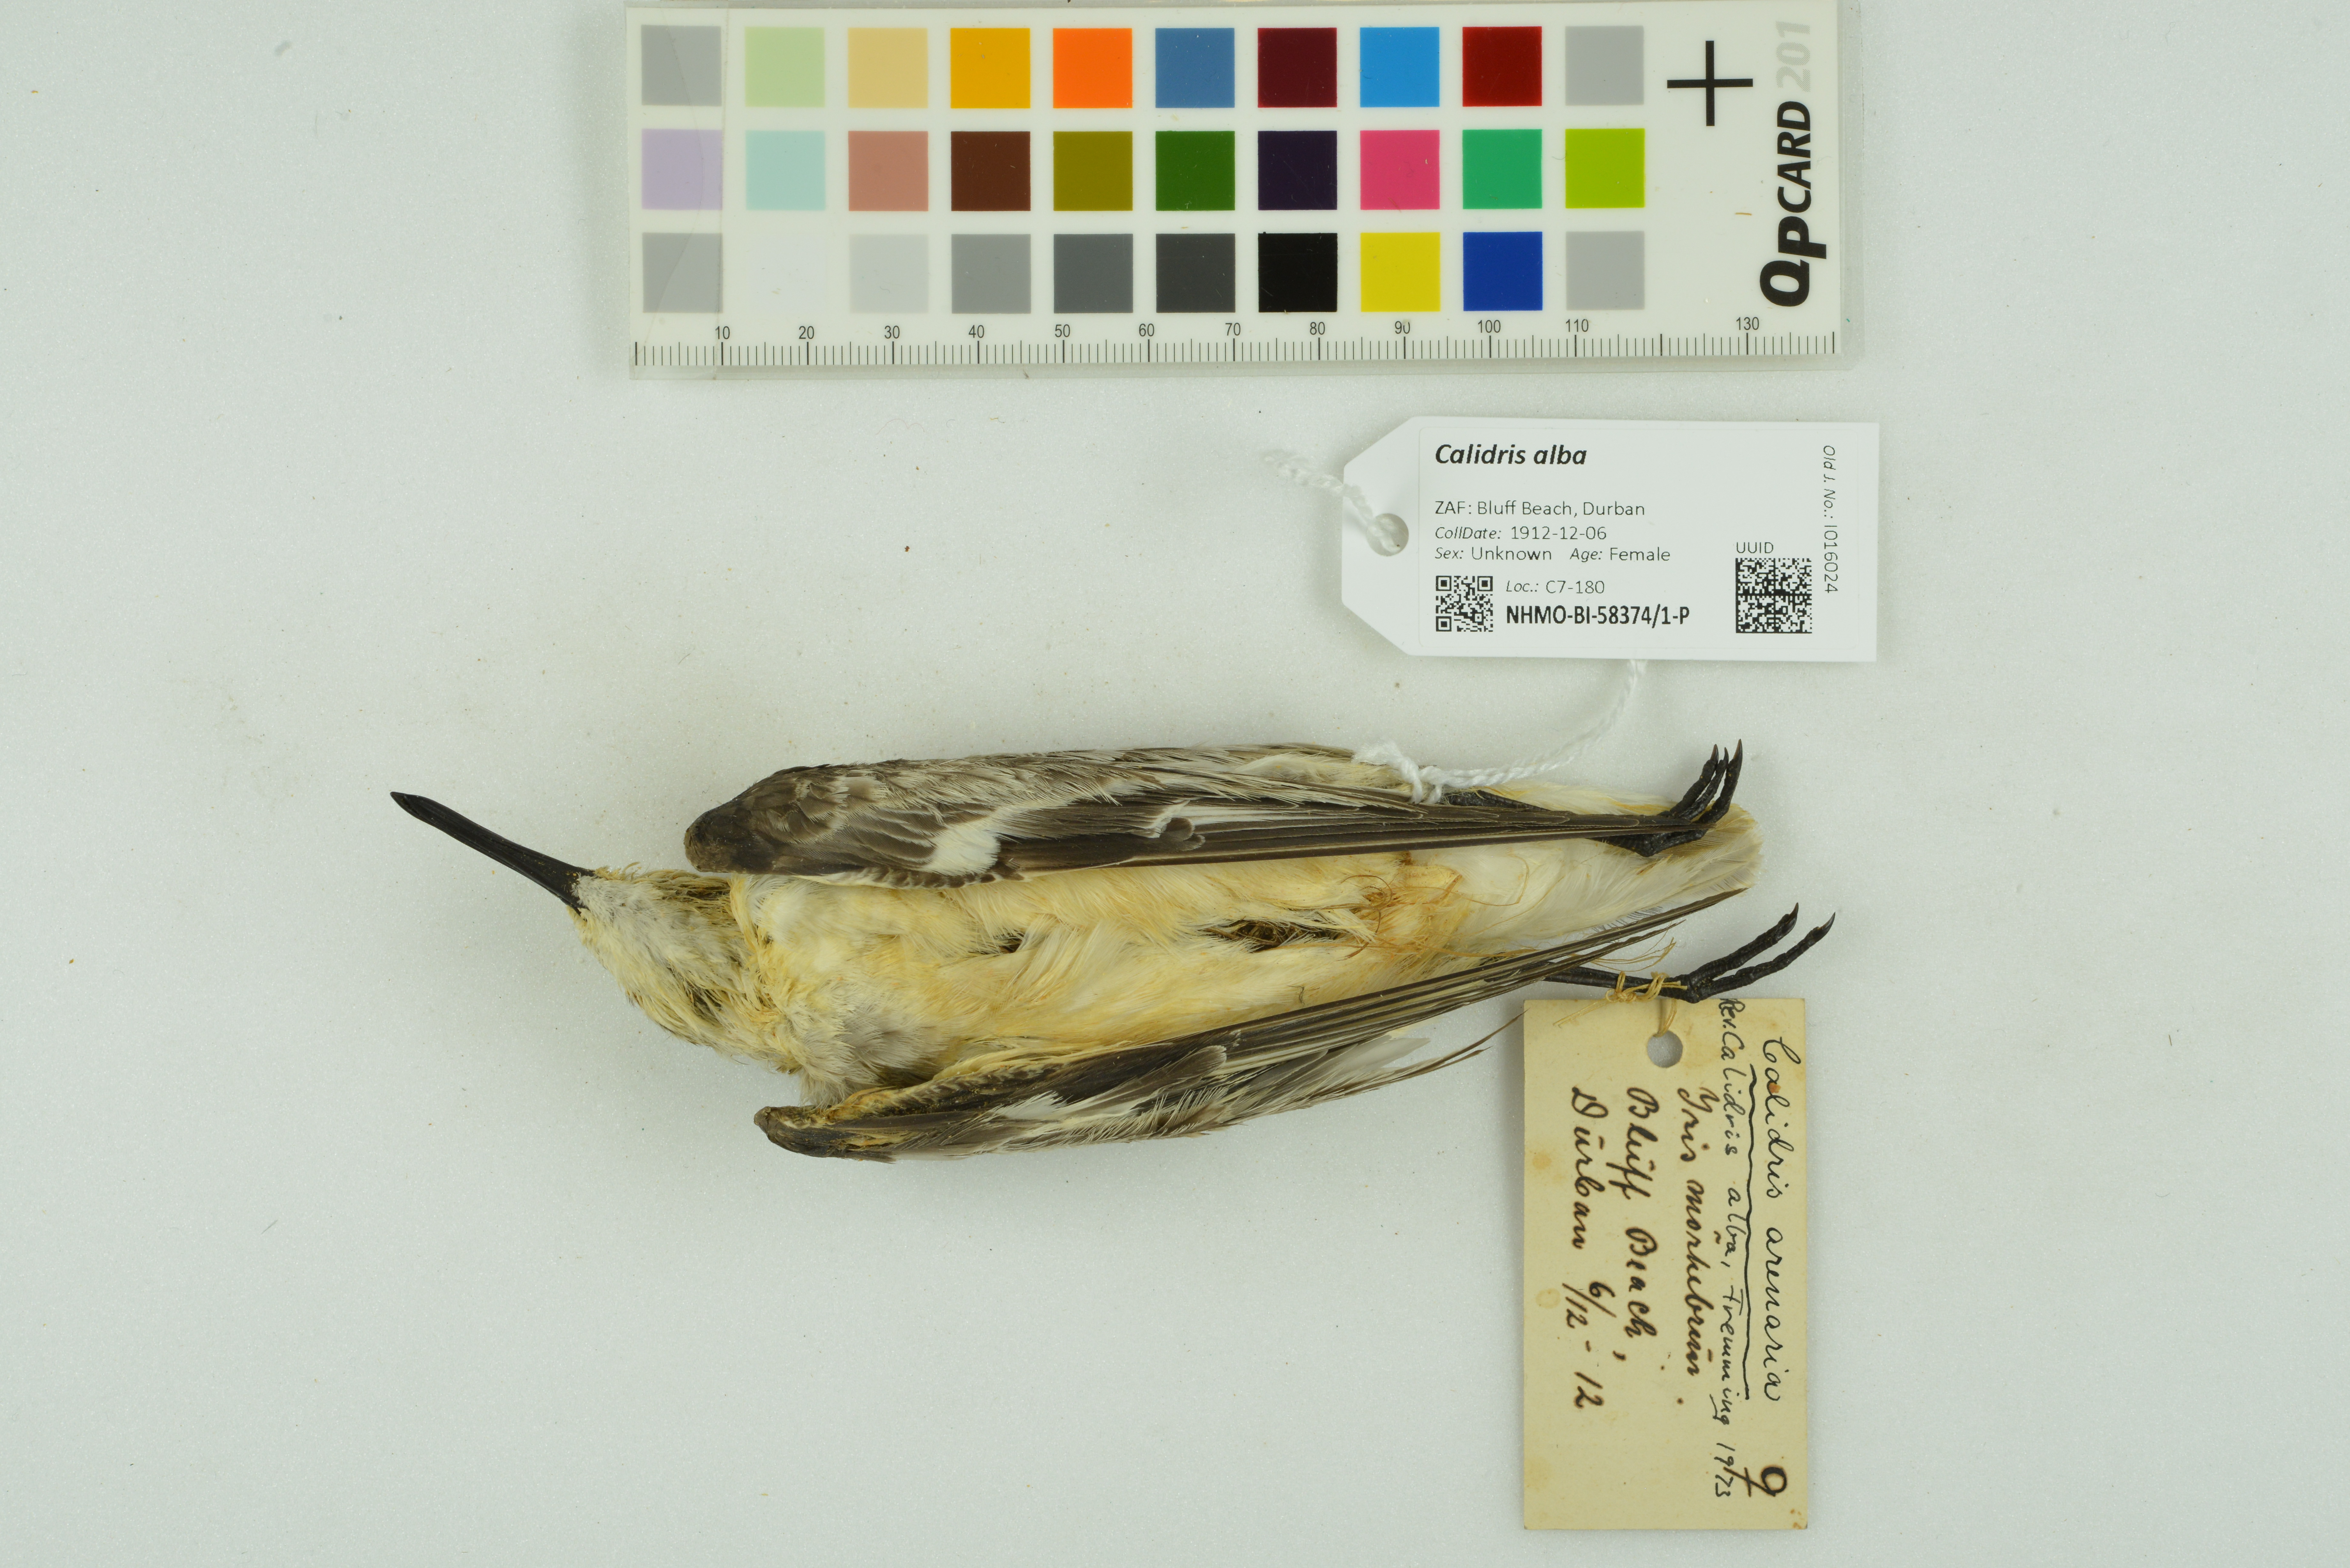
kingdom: Animalia
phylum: Chordata
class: Aves
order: Charadriiformes
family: Scolopacidae
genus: Calidris
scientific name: Calidris alba
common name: Sanderling
